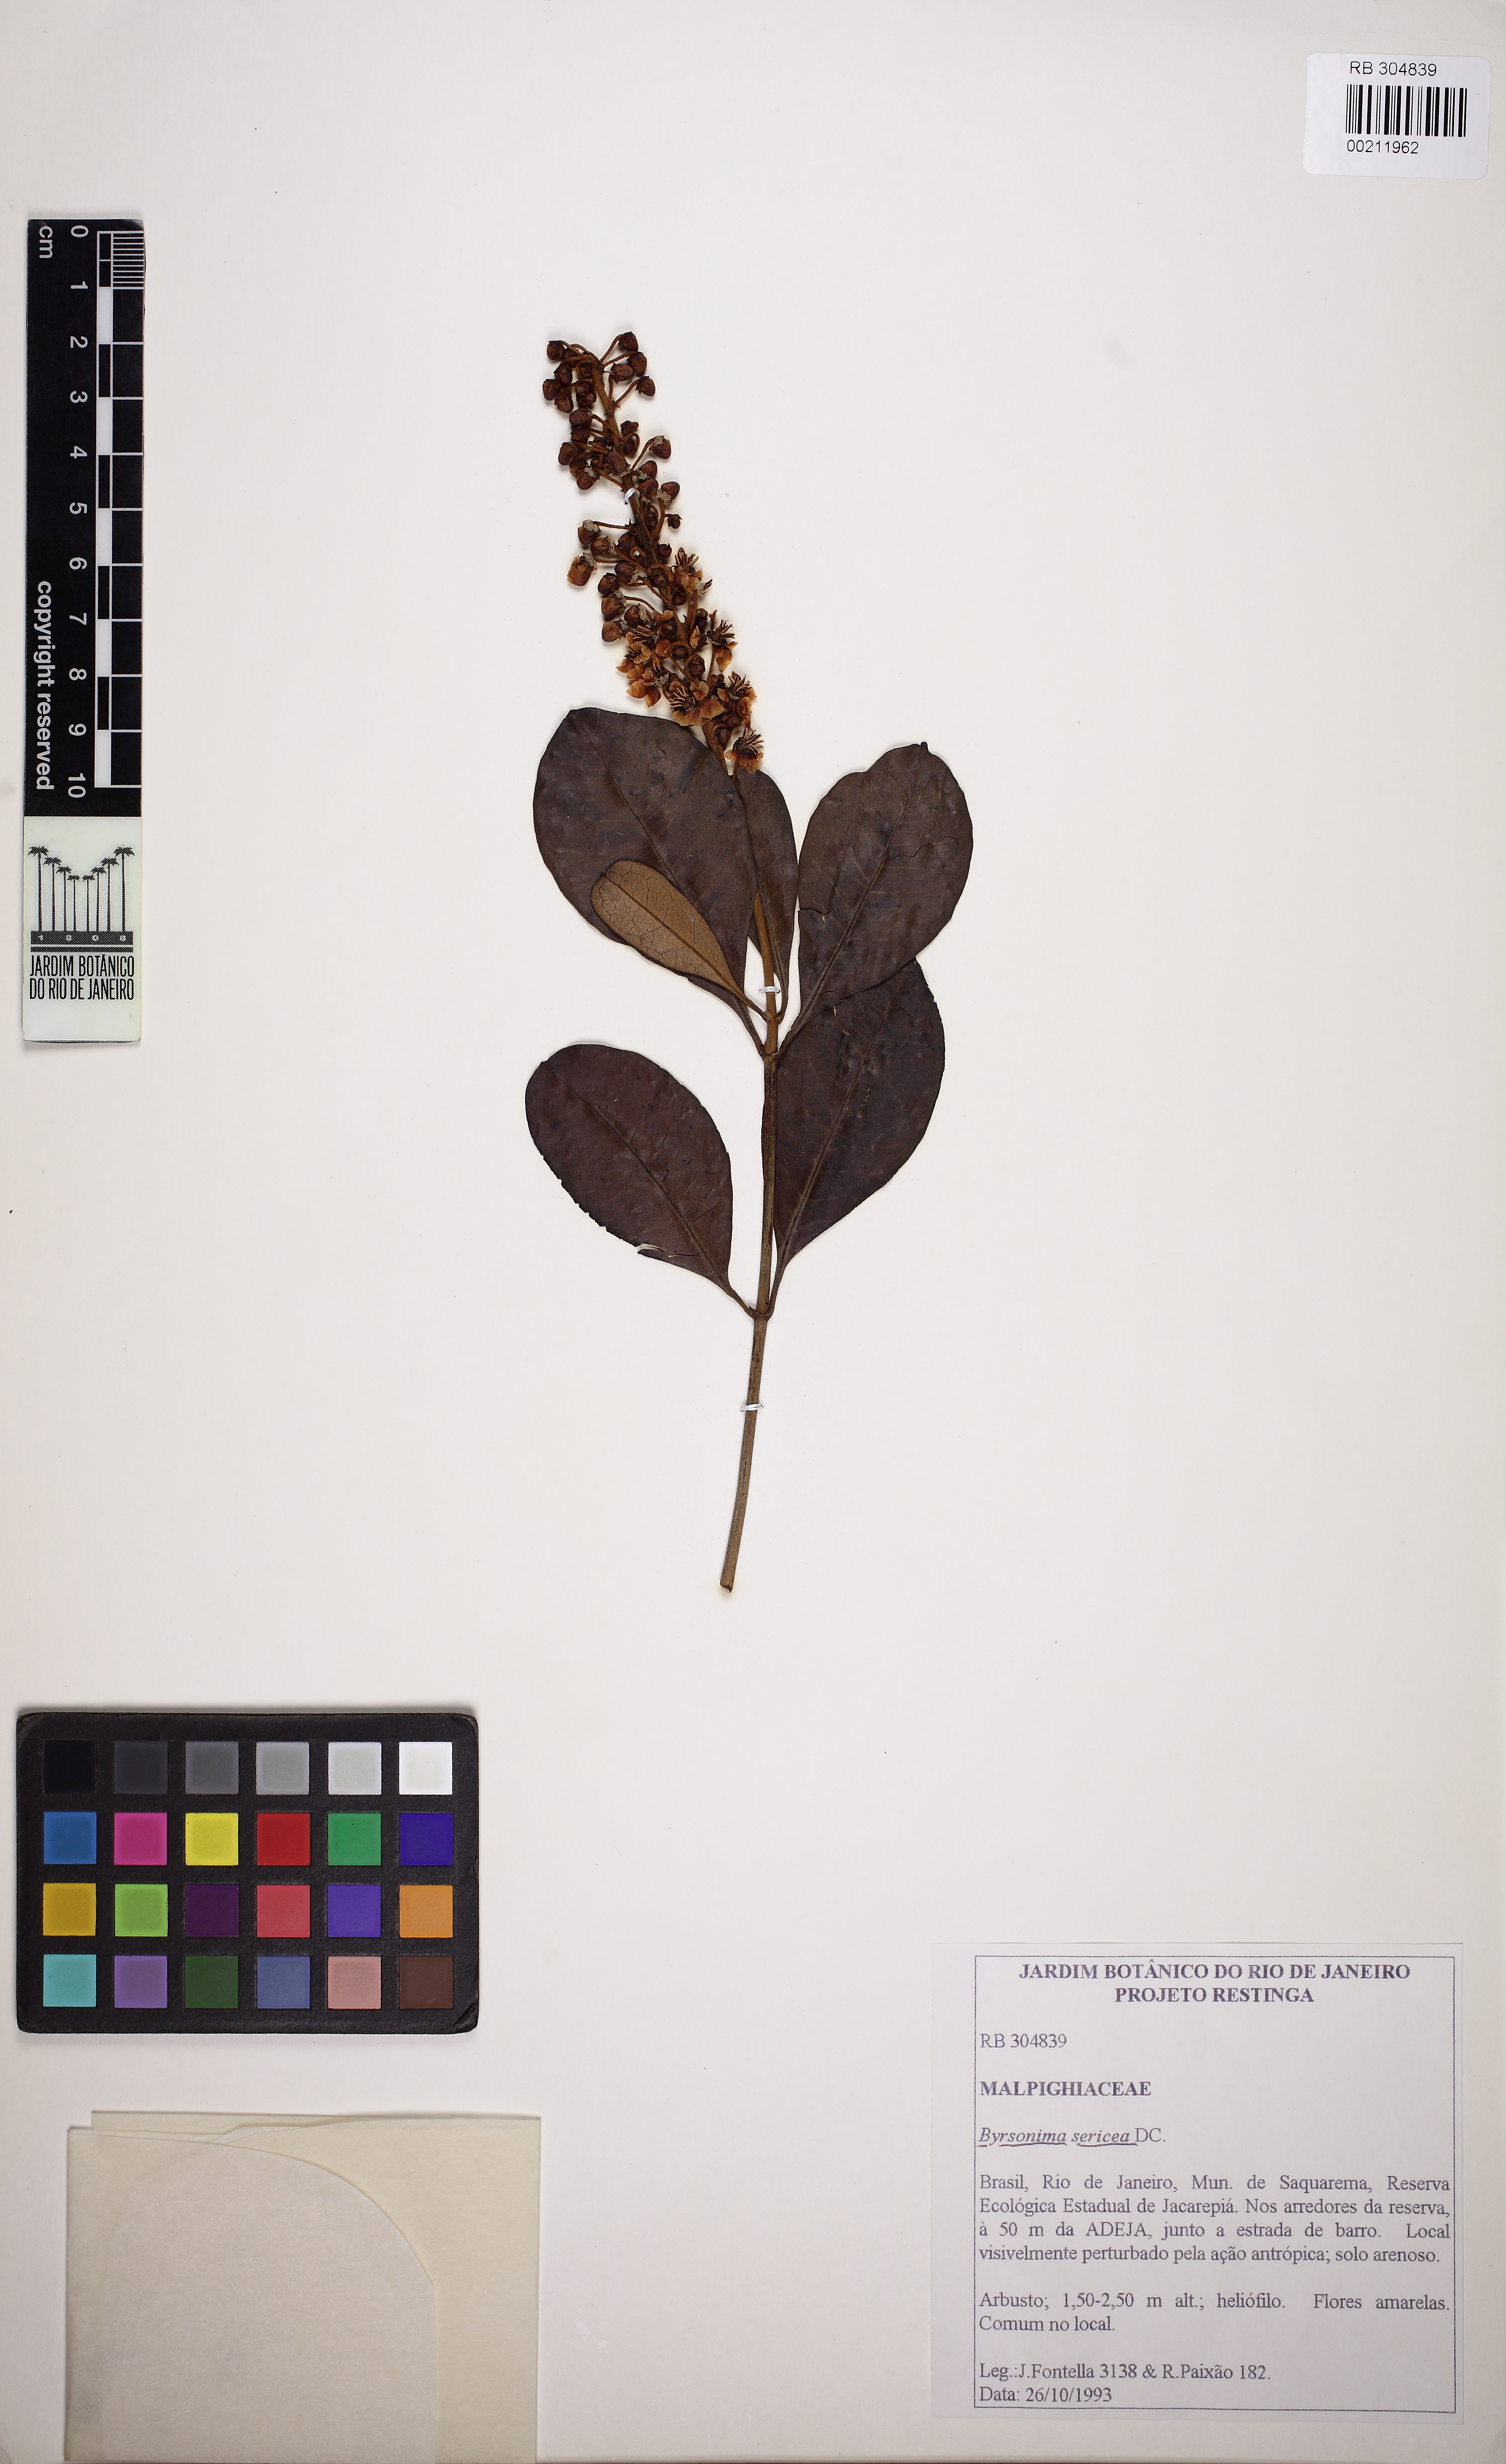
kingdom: Plantae
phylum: Tracheophyta
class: Magnoliopsida
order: Malpighiales
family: Malpighiaceae
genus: Byrsonima
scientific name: Byrsonima sericea
